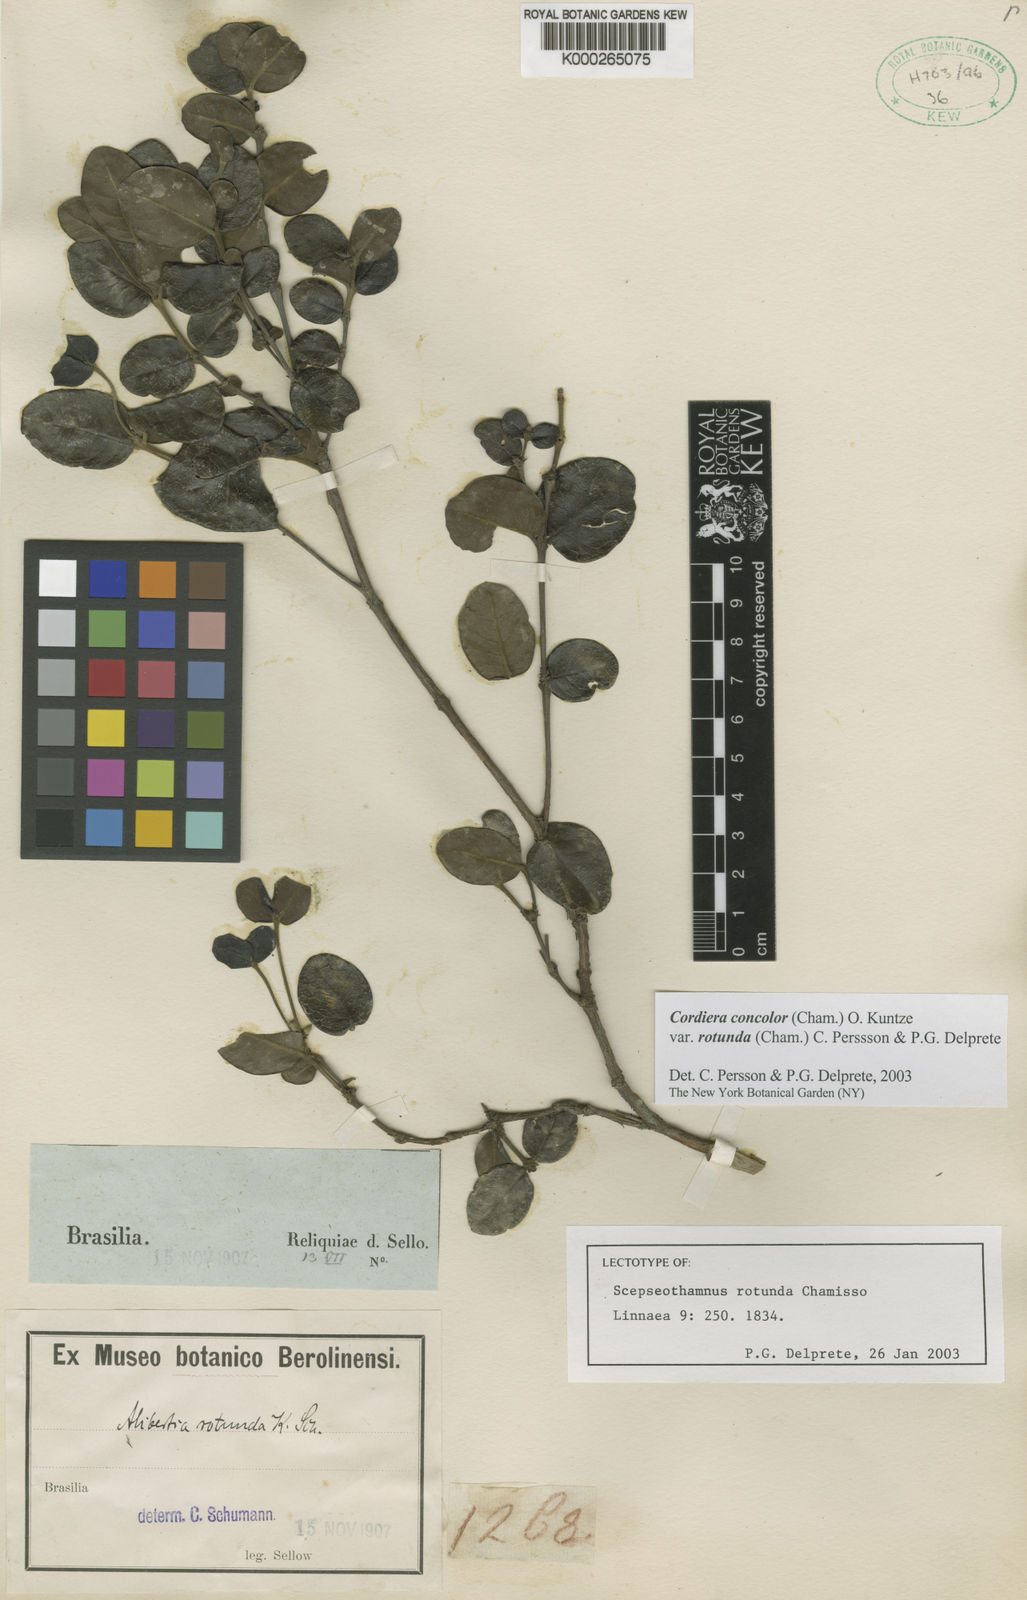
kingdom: Plantae
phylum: Tracheophyta
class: Magnoliopsida
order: Gentianales
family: Rubiaceae
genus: Cordiera
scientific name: Cordiera concolor
